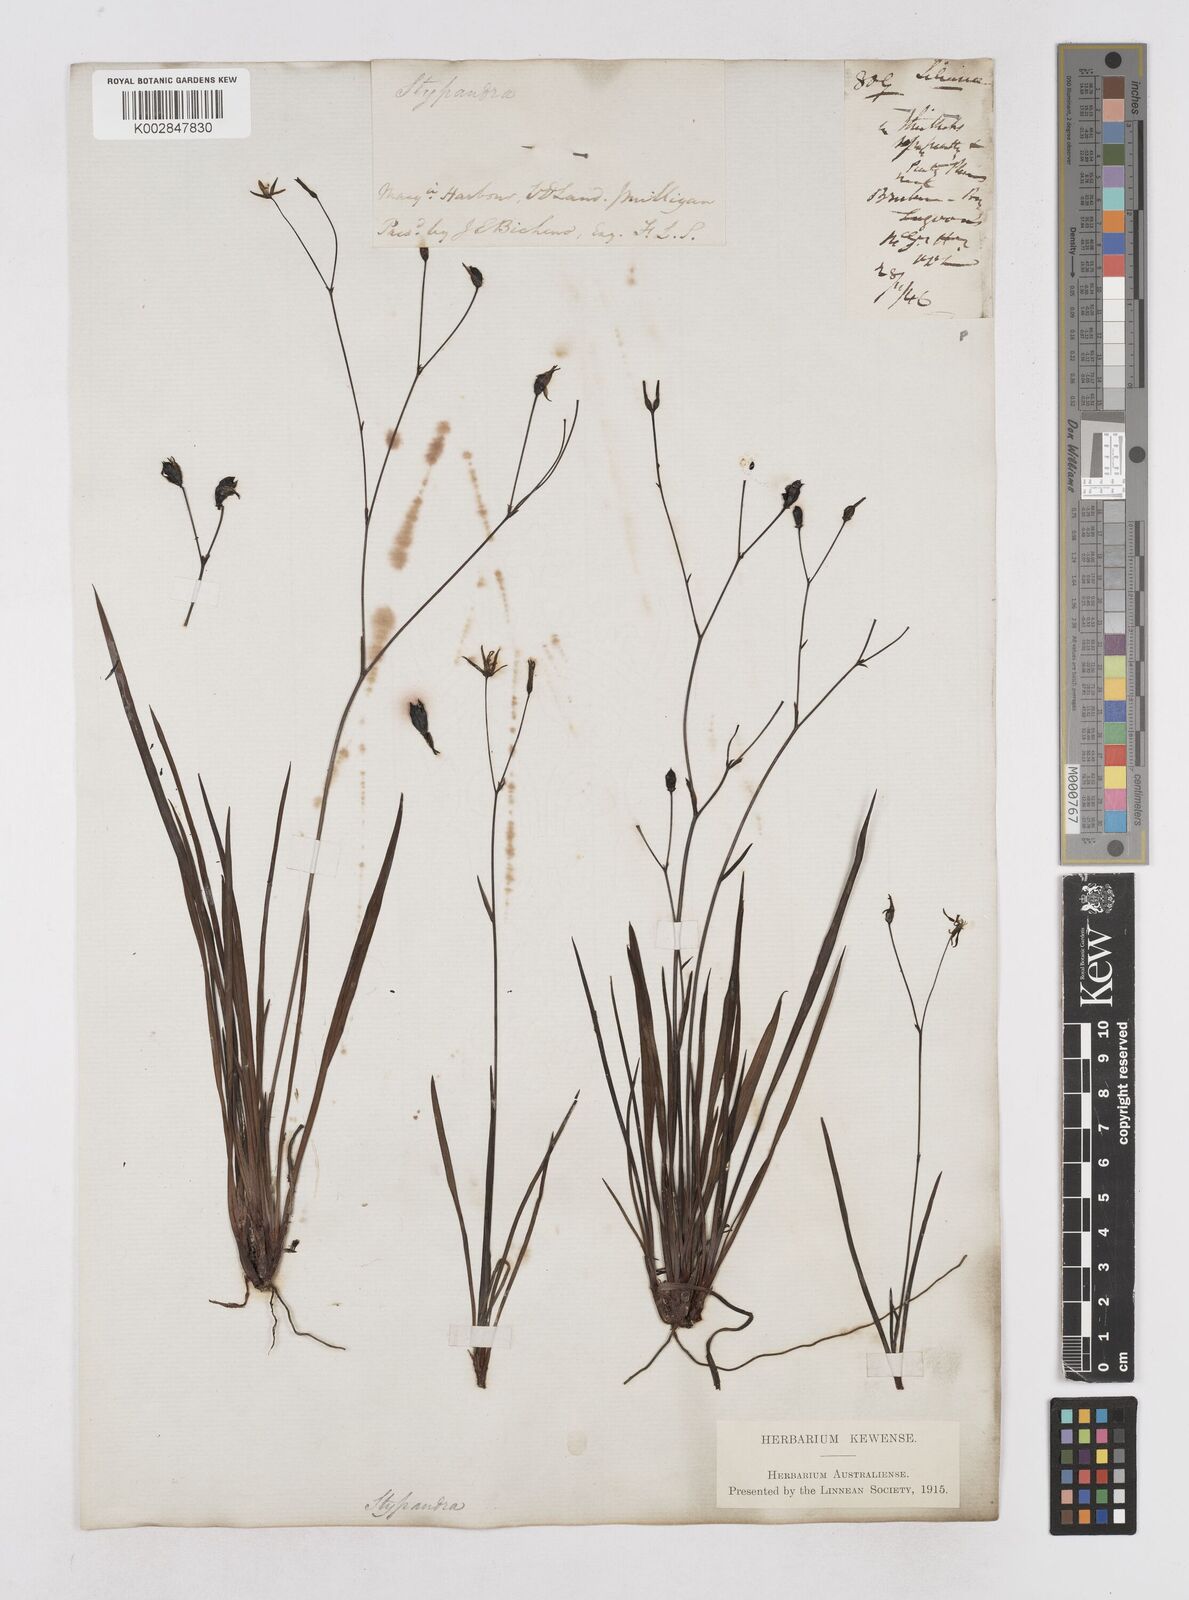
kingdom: Plantae
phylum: Tracheophyta
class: Liliopsida
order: Asparagales
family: Asphodelaceae
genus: Thelionema
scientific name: Thelionema umbellatum
